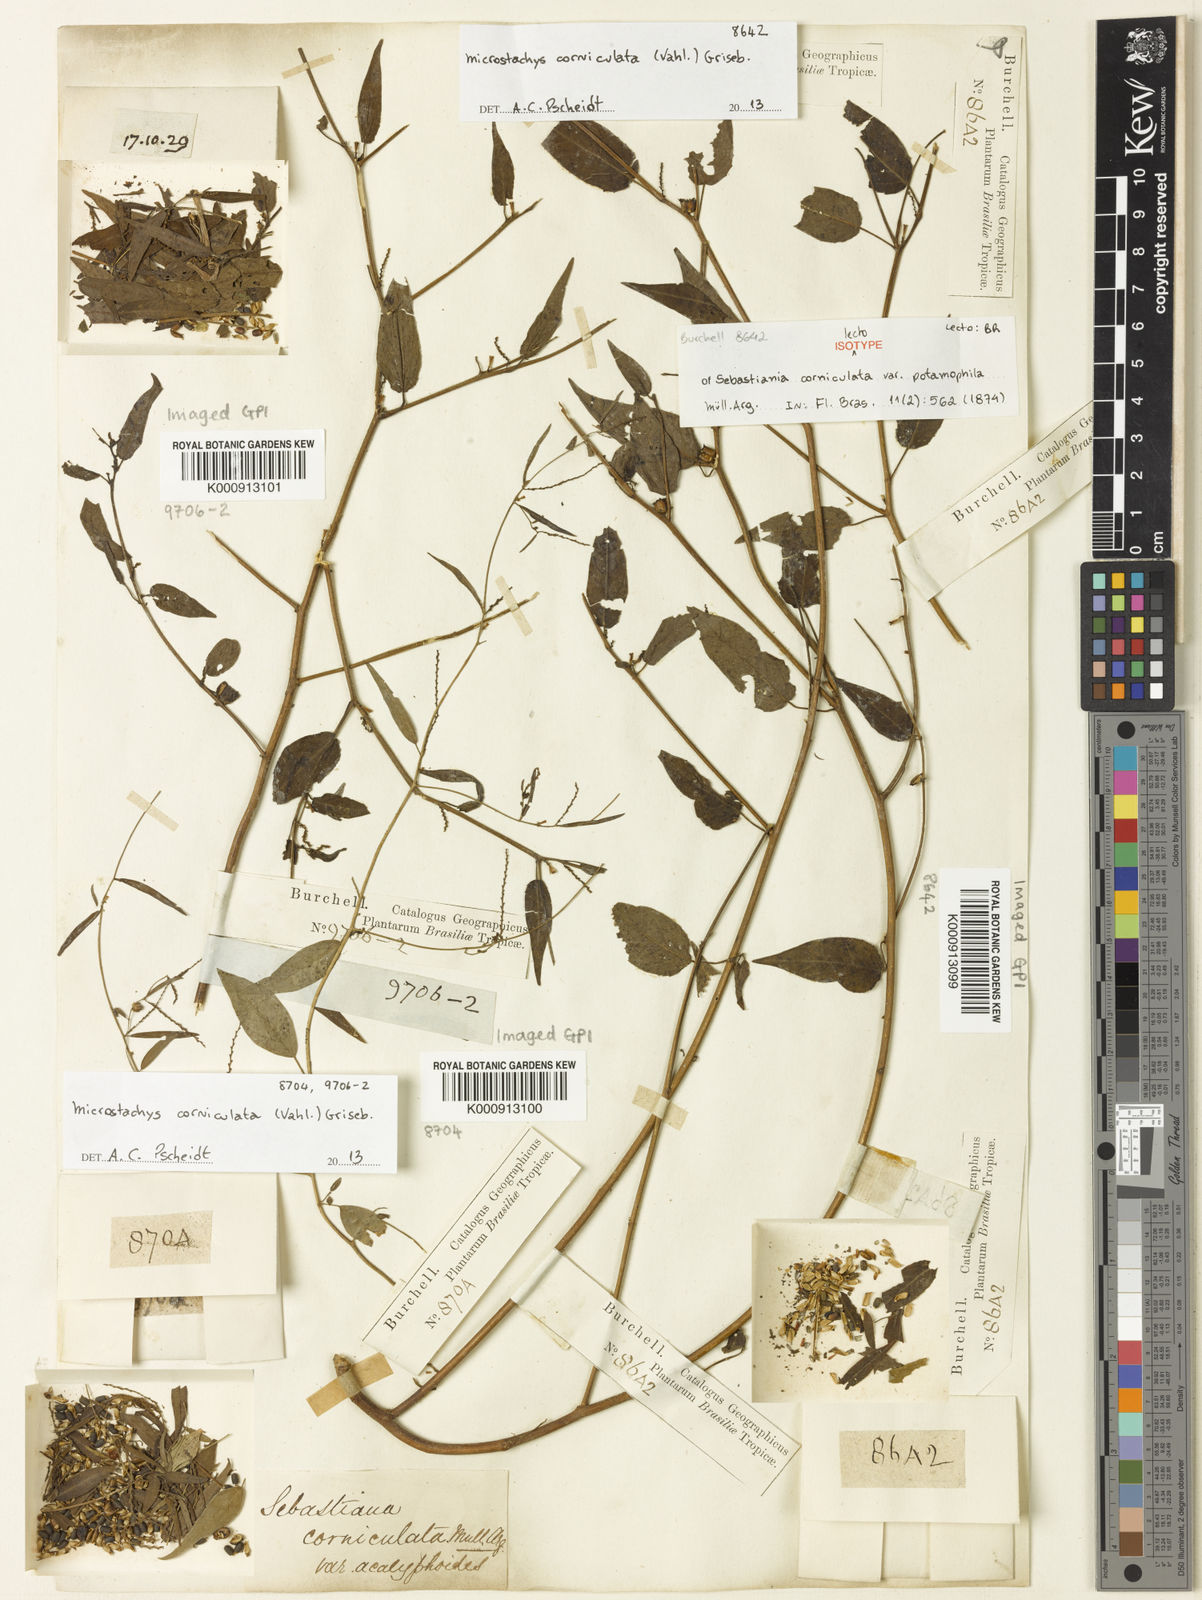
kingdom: Plantae
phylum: Tracheophyta
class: Magnoliopsida
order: Malpighiales
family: Euphorbiaceae
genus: Microstachys
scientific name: Microstachys corniculata
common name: Hato tejas
